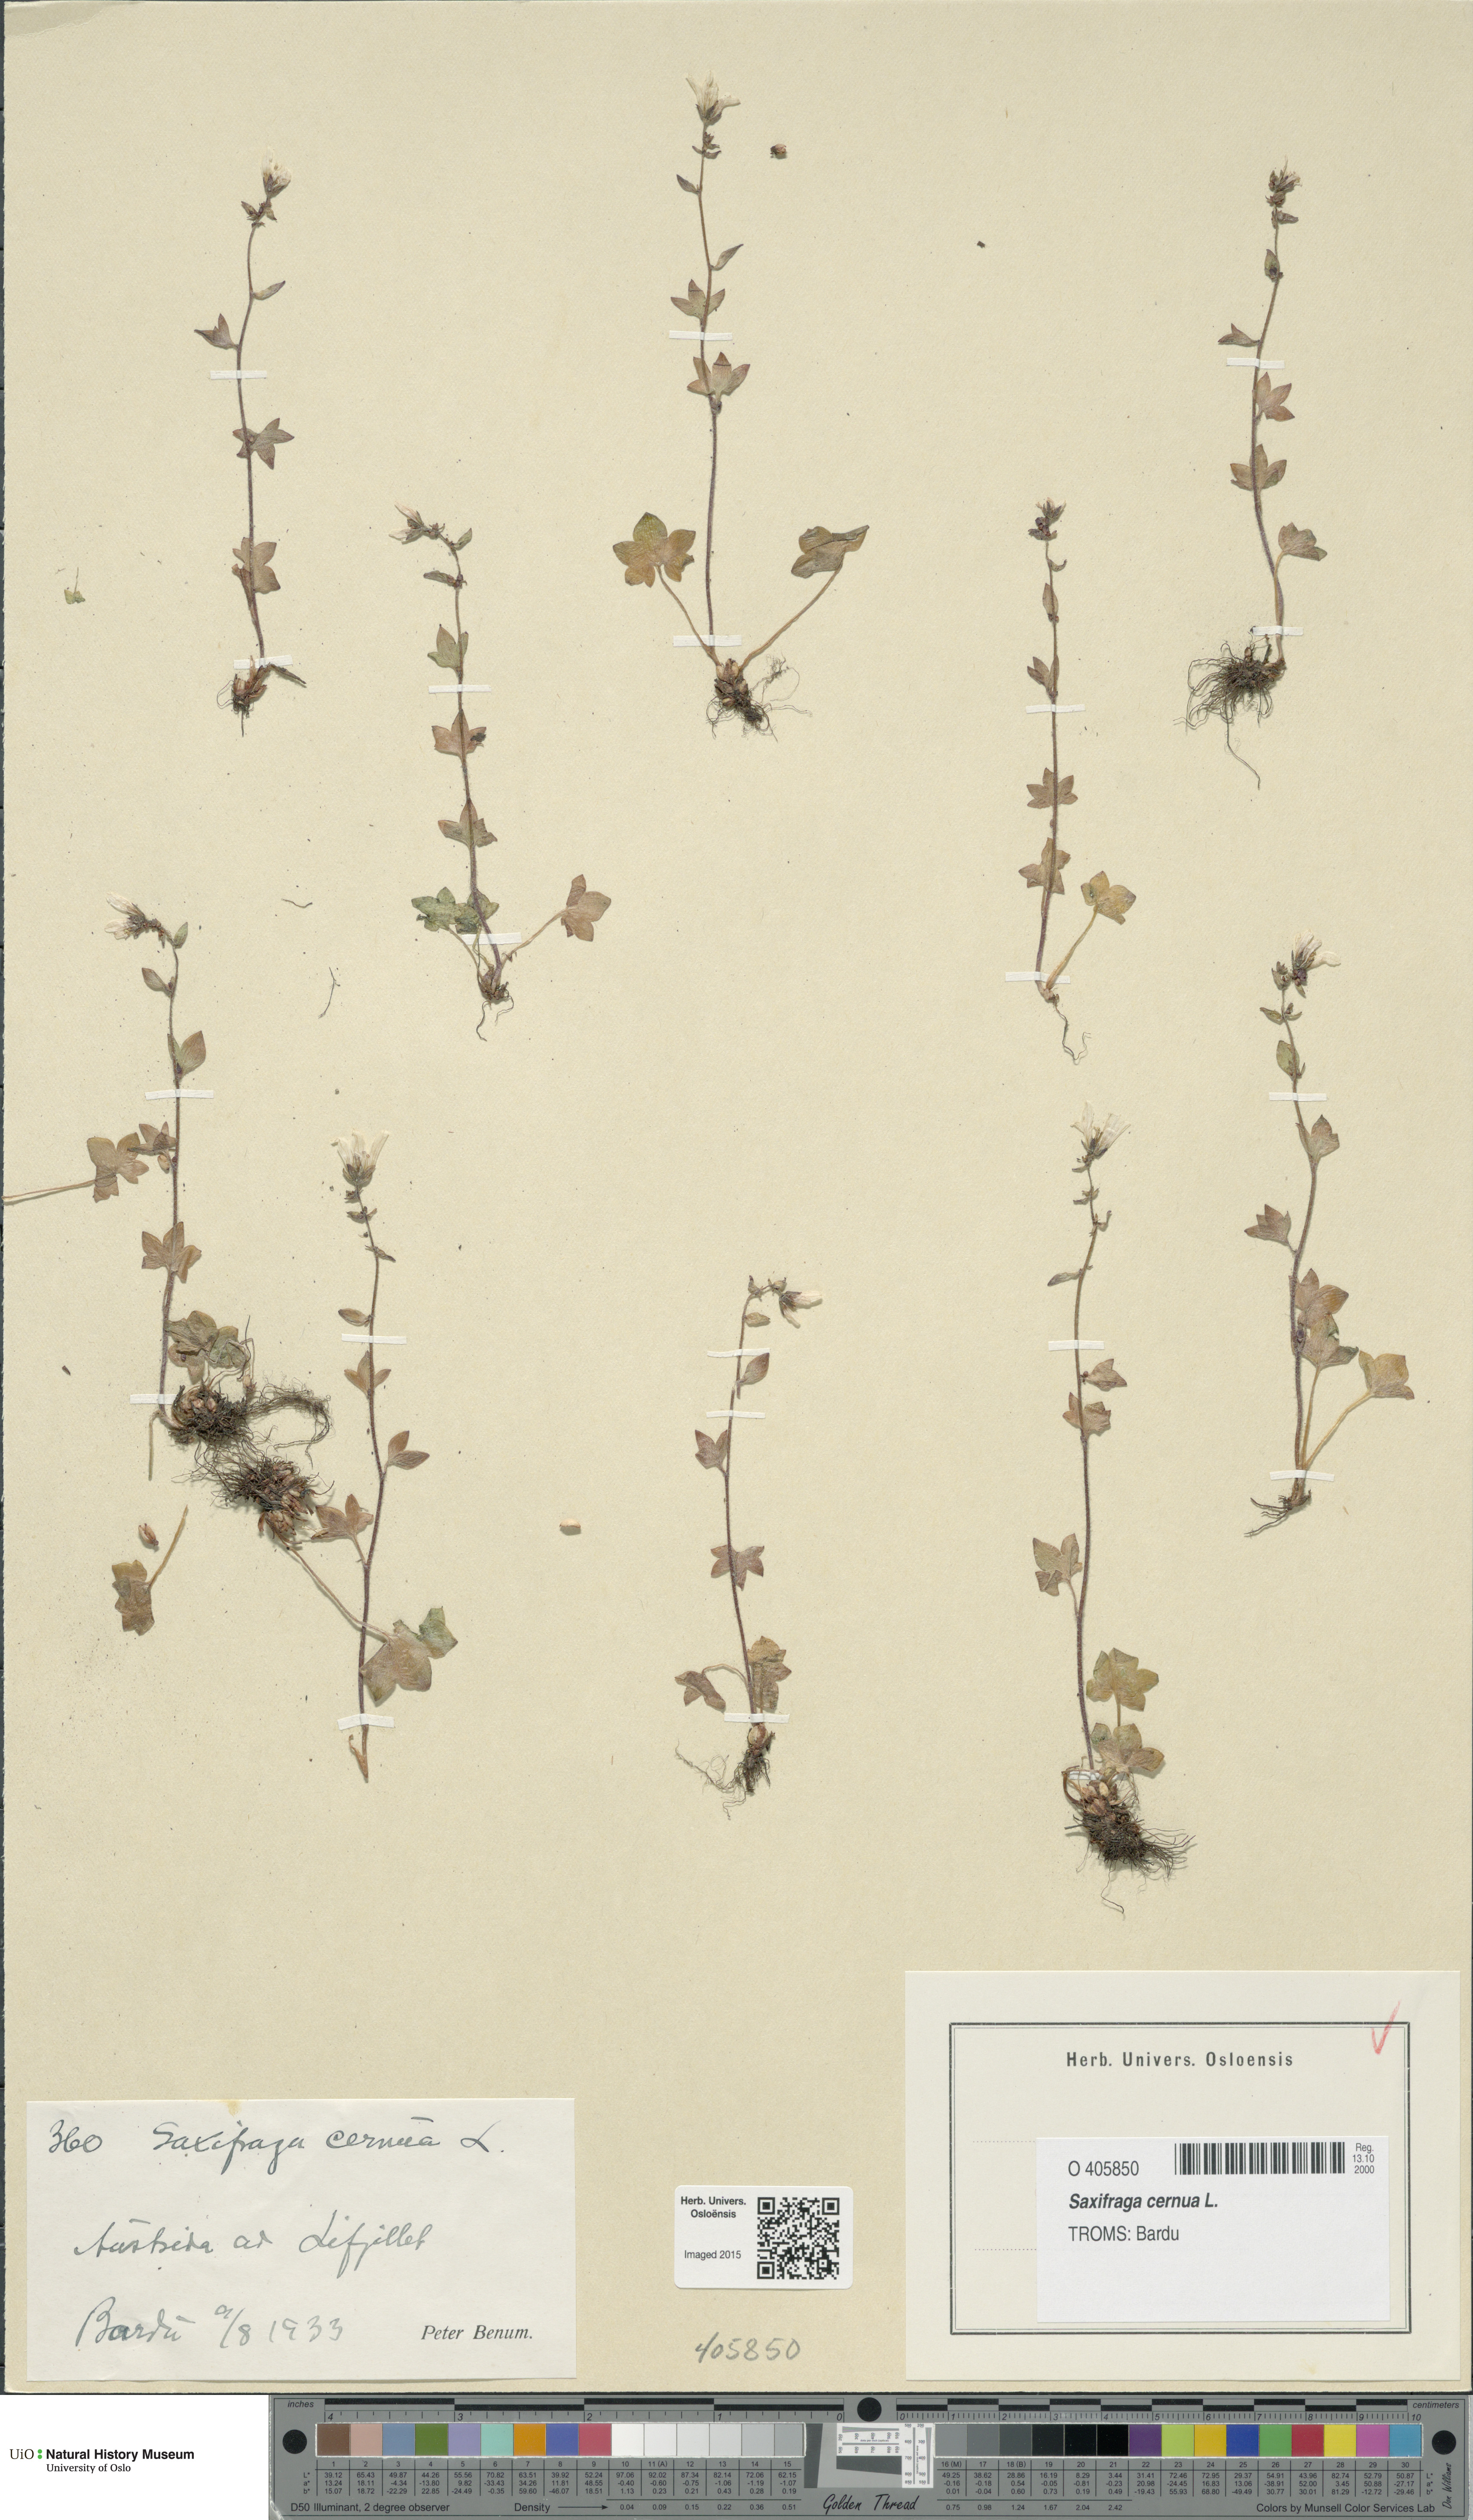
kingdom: Plantae
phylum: Tracheophyta
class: Magnoliopsida
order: Saxifragales
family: Saxifragaceae
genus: Saxifraga
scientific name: Saxifraga cernua
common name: Drooping saxifrage
